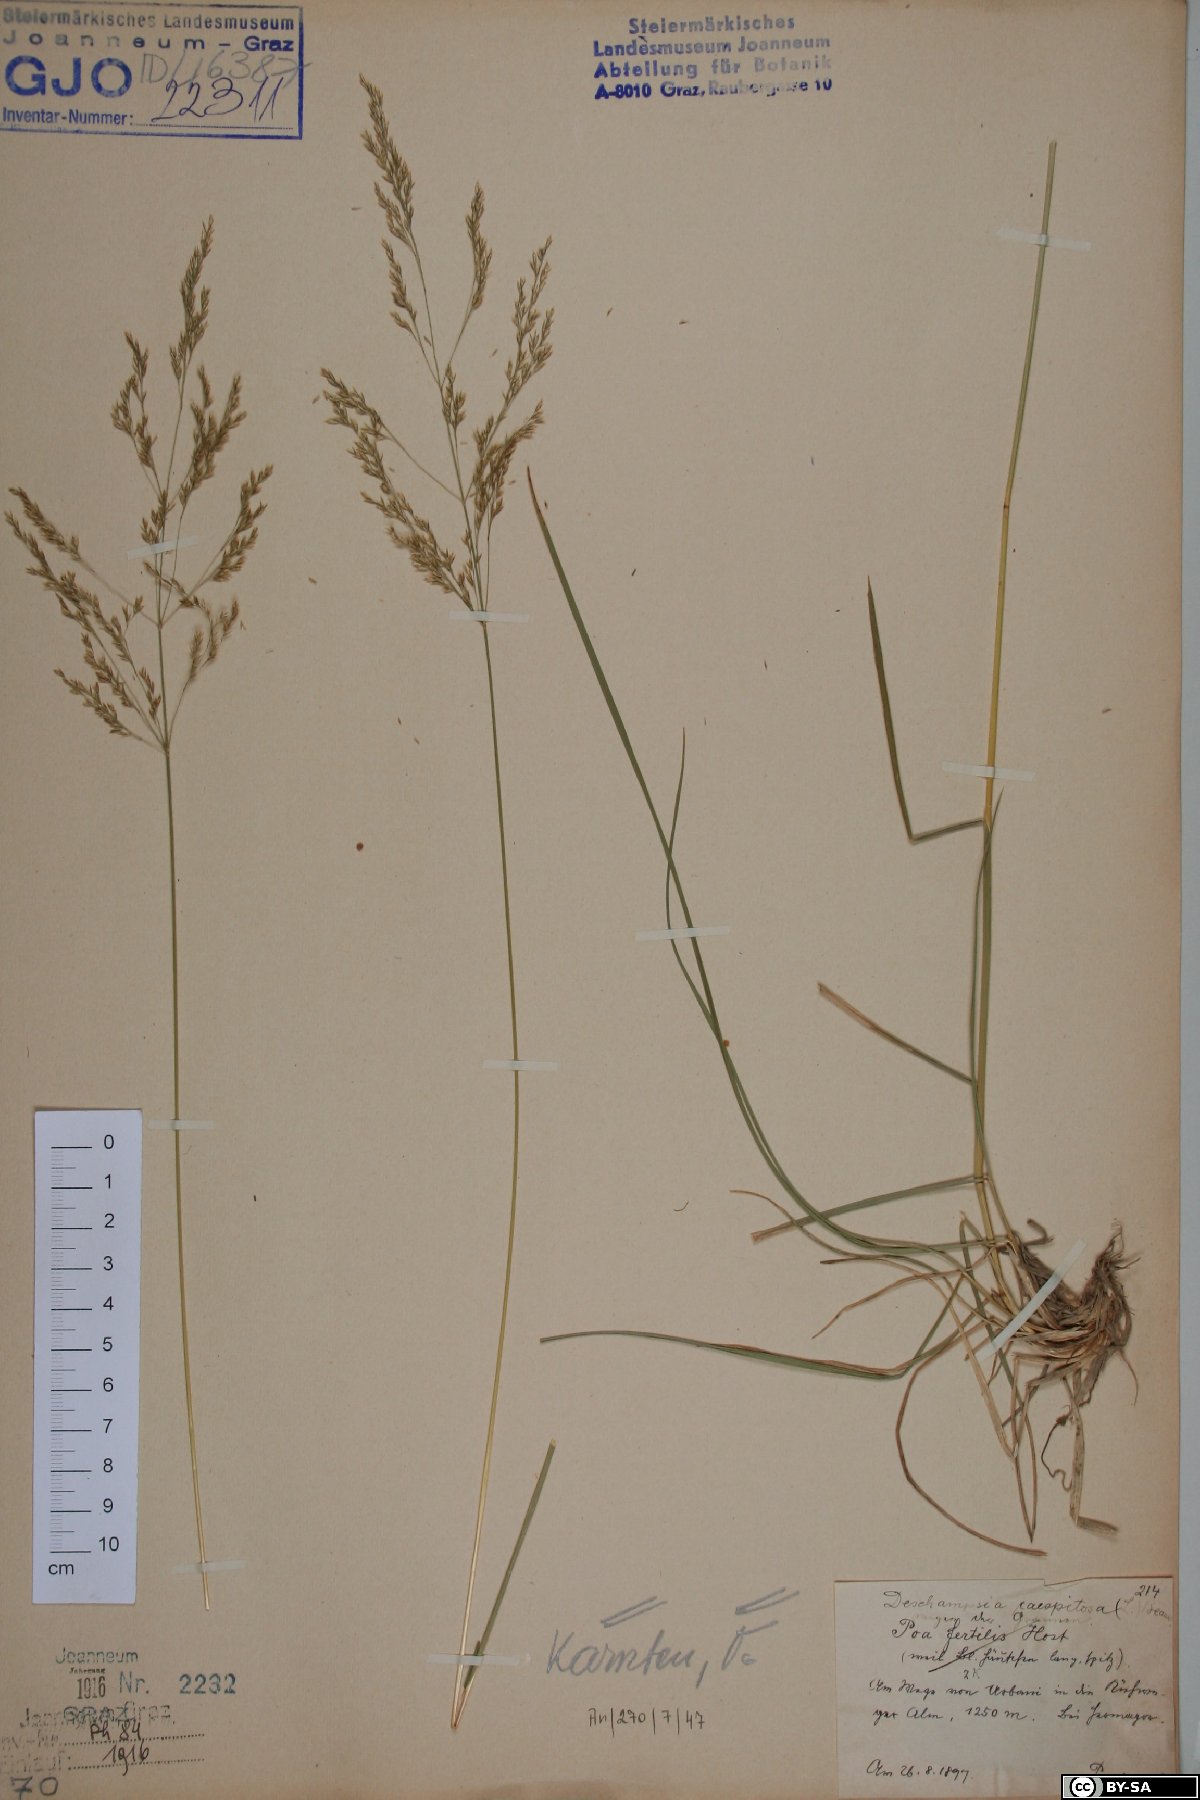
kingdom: Plantae
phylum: Tracheophyta
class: Liliopsida
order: Poales
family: Poaceae
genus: Deschampsia
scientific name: Deschampsia cespitosa
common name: Tufted hair-grass
